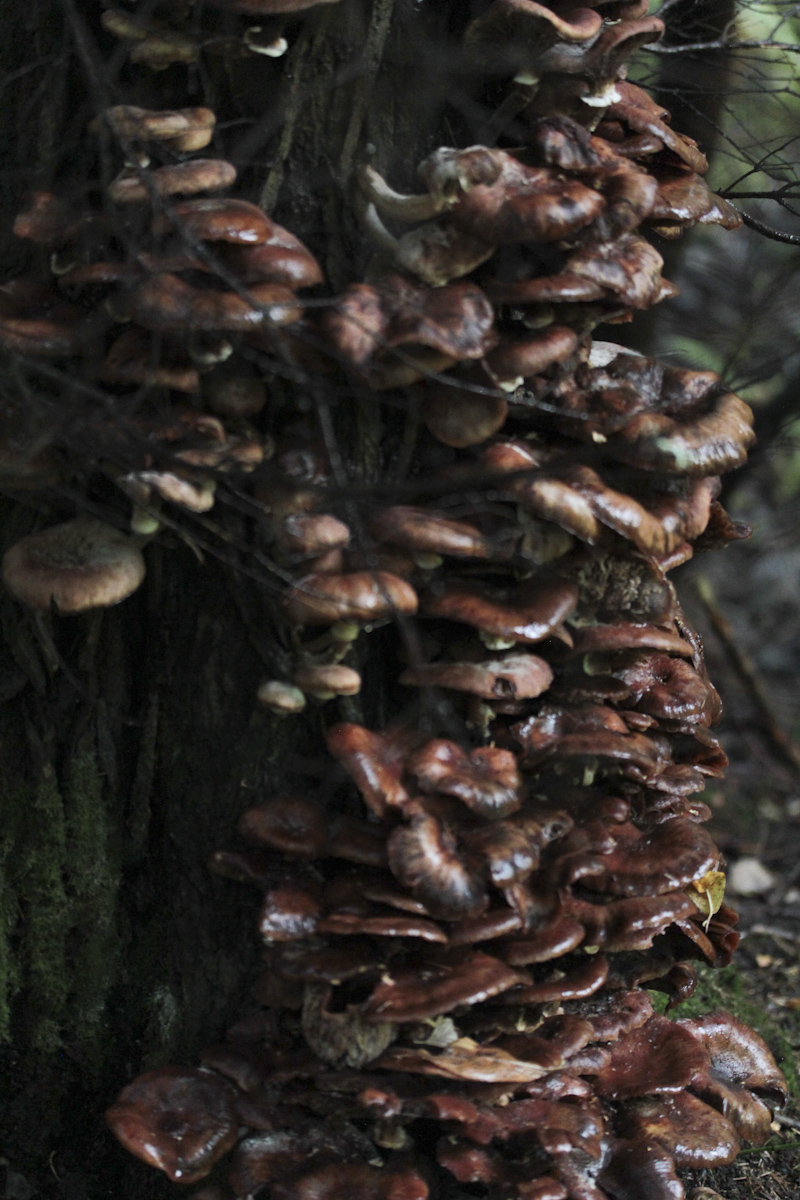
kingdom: Fungi
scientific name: Fungi
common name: Fungi
